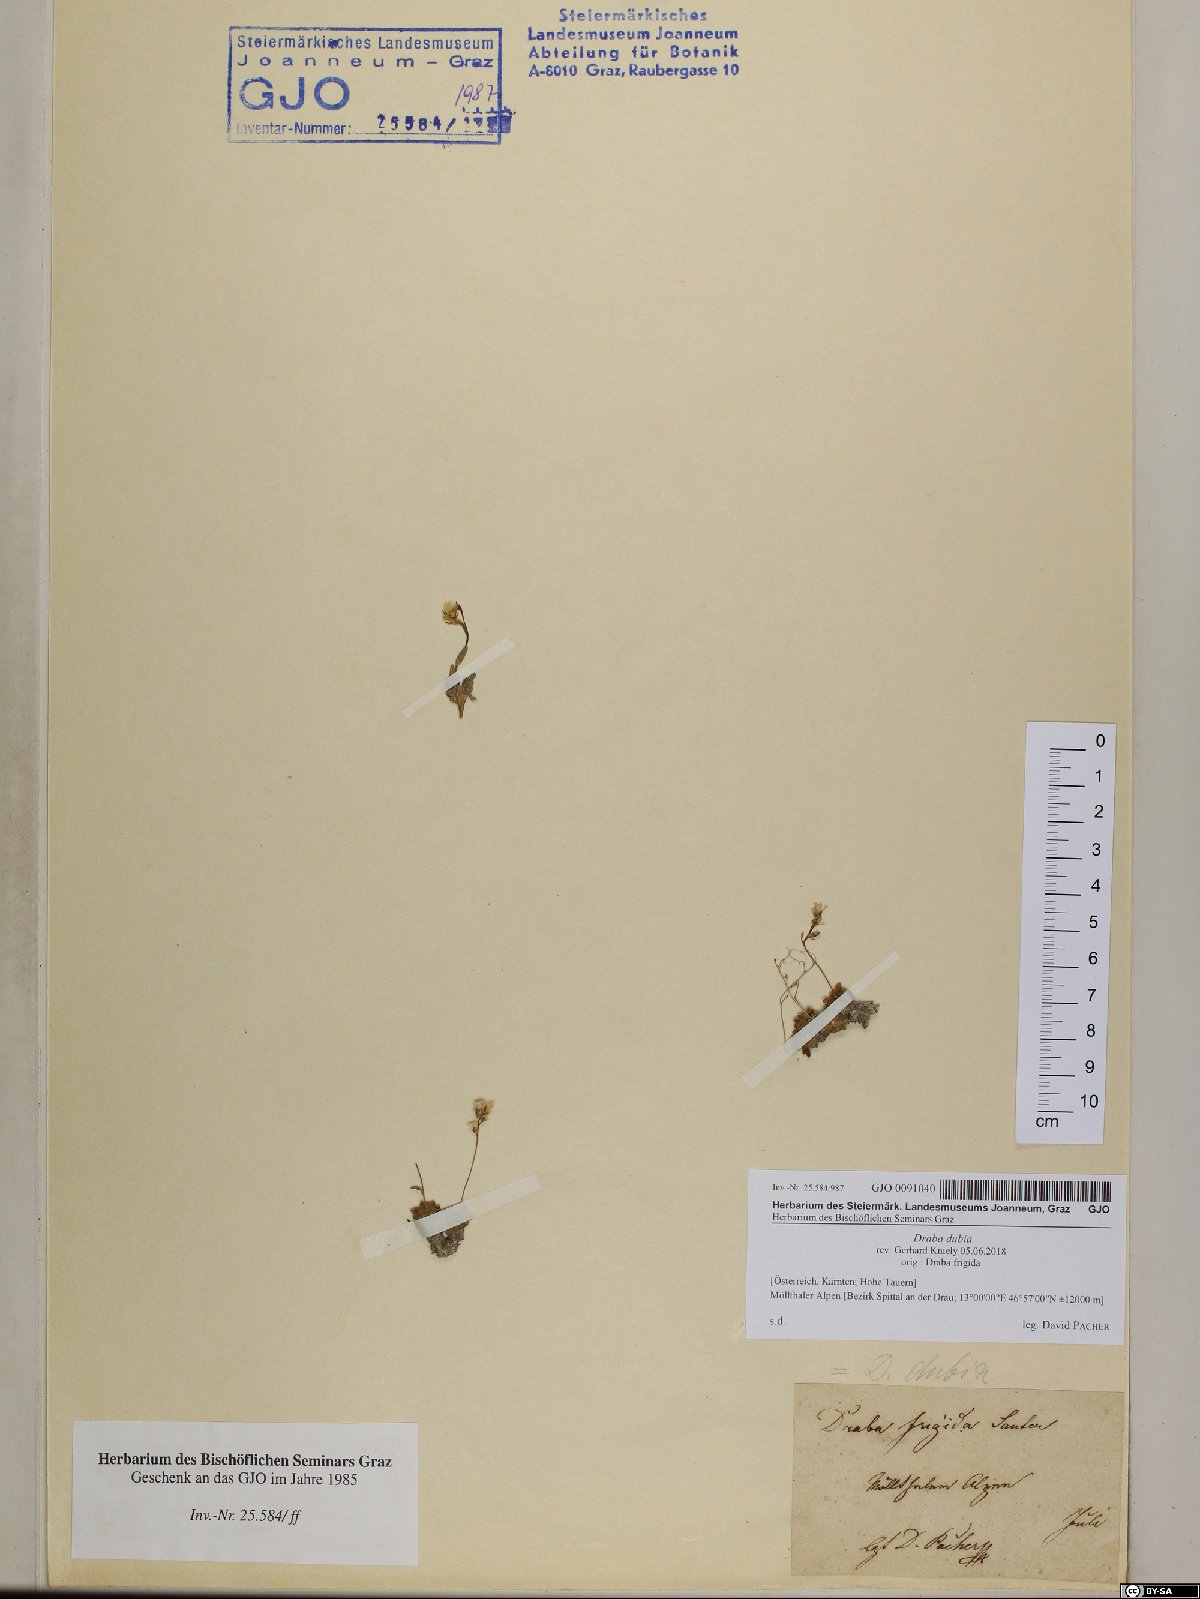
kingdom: Plantae
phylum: Tracheophyta
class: Magnoliopsida
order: Brassicales
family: Brassicaceae
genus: Draba
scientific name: Draba dubia
